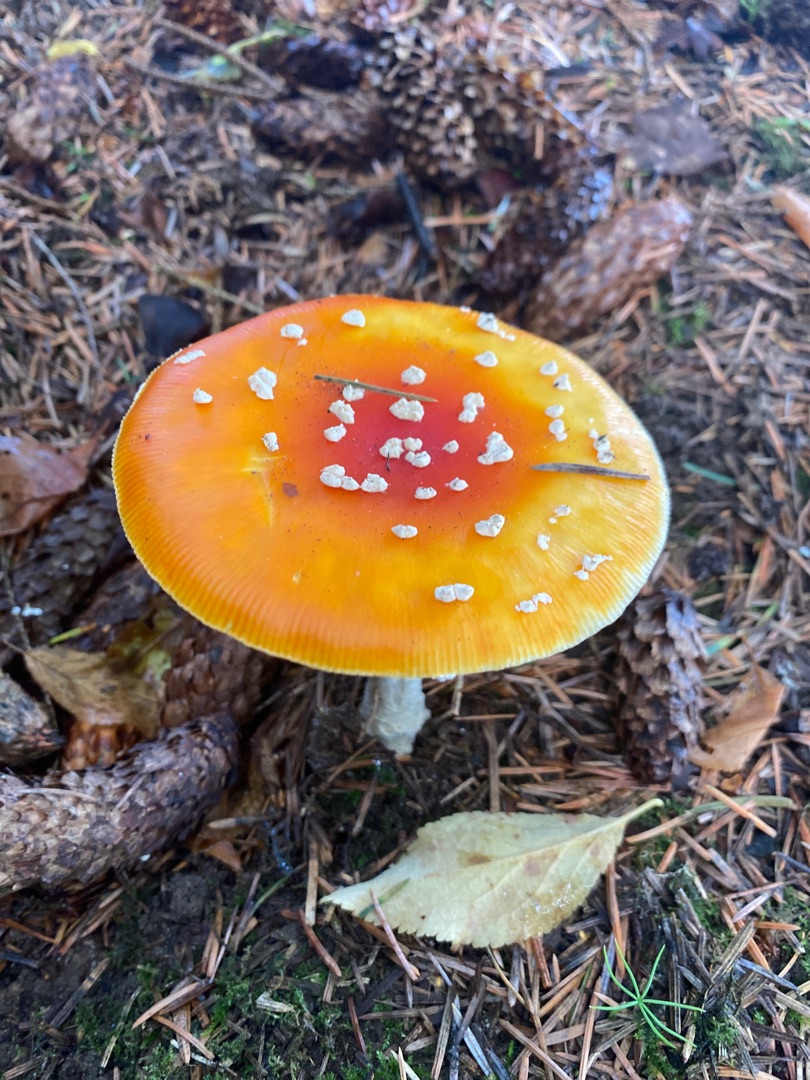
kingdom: Fungi
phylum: Basidiomycota
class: Agaricomycetes
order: Agaricales
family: Amanitaceae
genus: Amanita
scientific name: Amanita muscaria
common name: Rød fluesvamp
